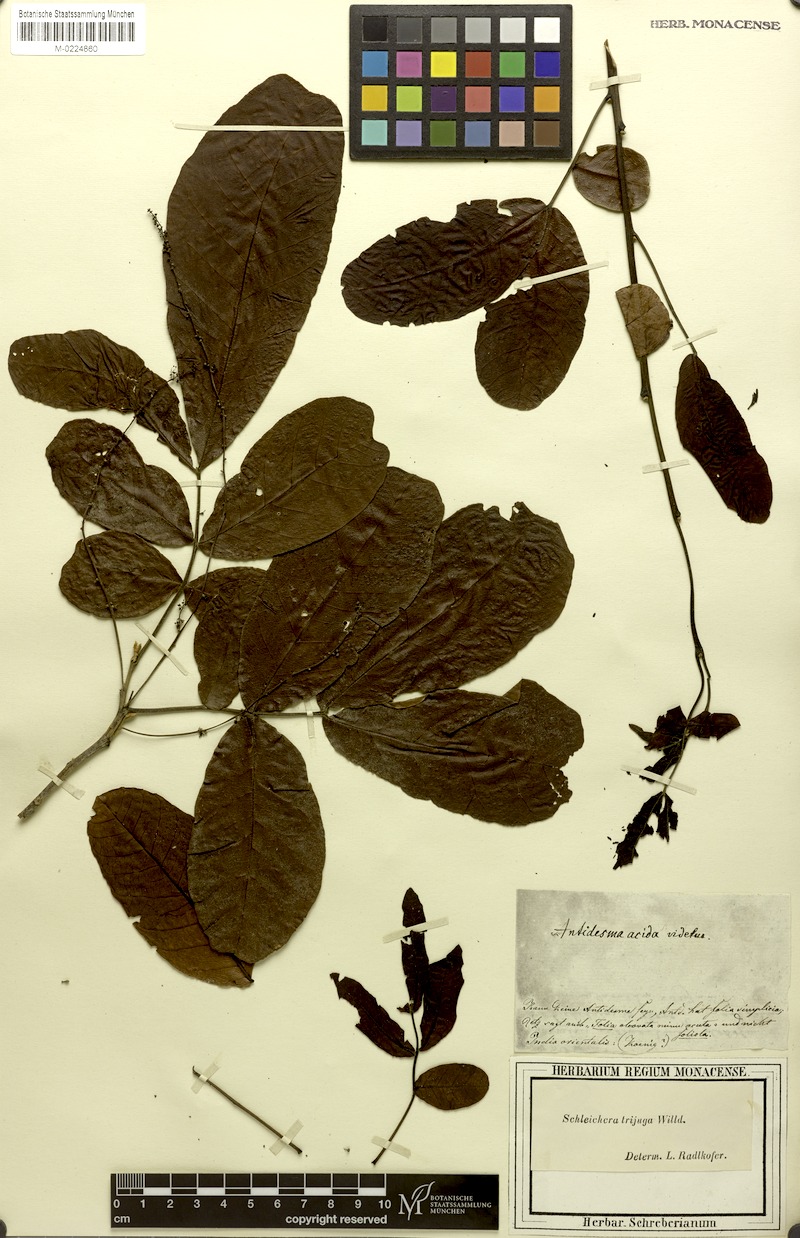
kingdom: Plantae
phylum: Tracheophyta
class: Magnoliopsida
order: Sapindales
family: Sapindaceae
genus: Schleichera
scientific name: Schleichera oleosa
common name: Malay lactree
